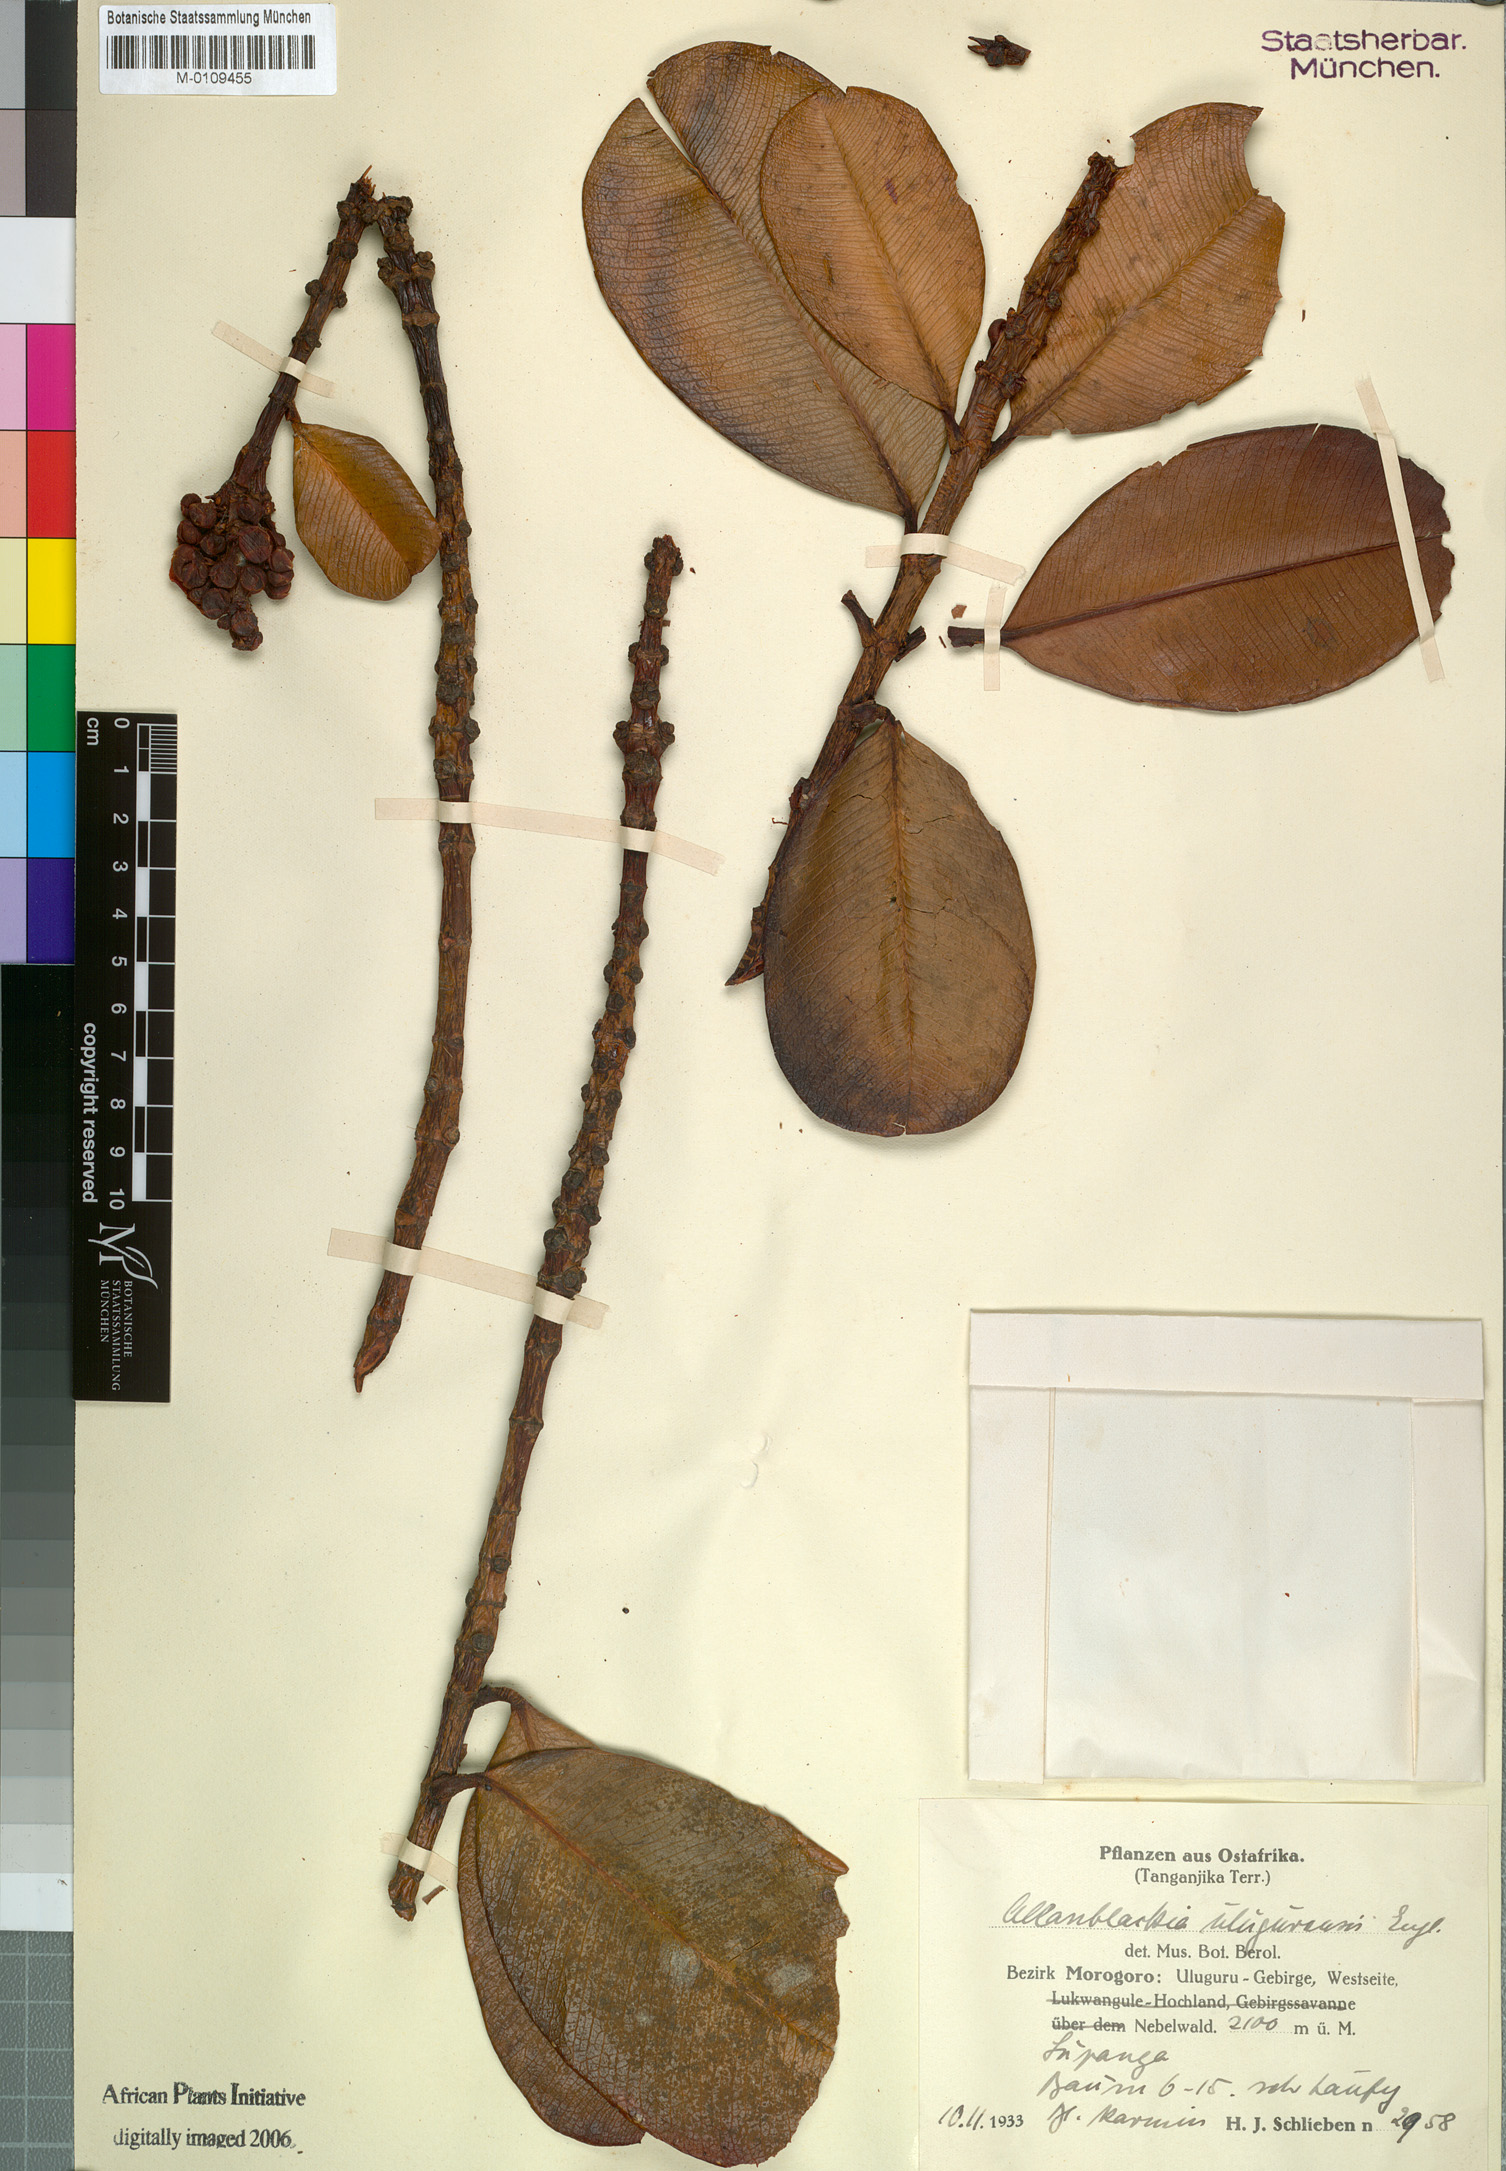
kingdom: Plantae
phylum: Tracheophyta
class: Magnoliopsida
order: Malpighiales
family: Clusiaceae
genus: Allanblackia
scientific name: Allanblackia ulugurensis
